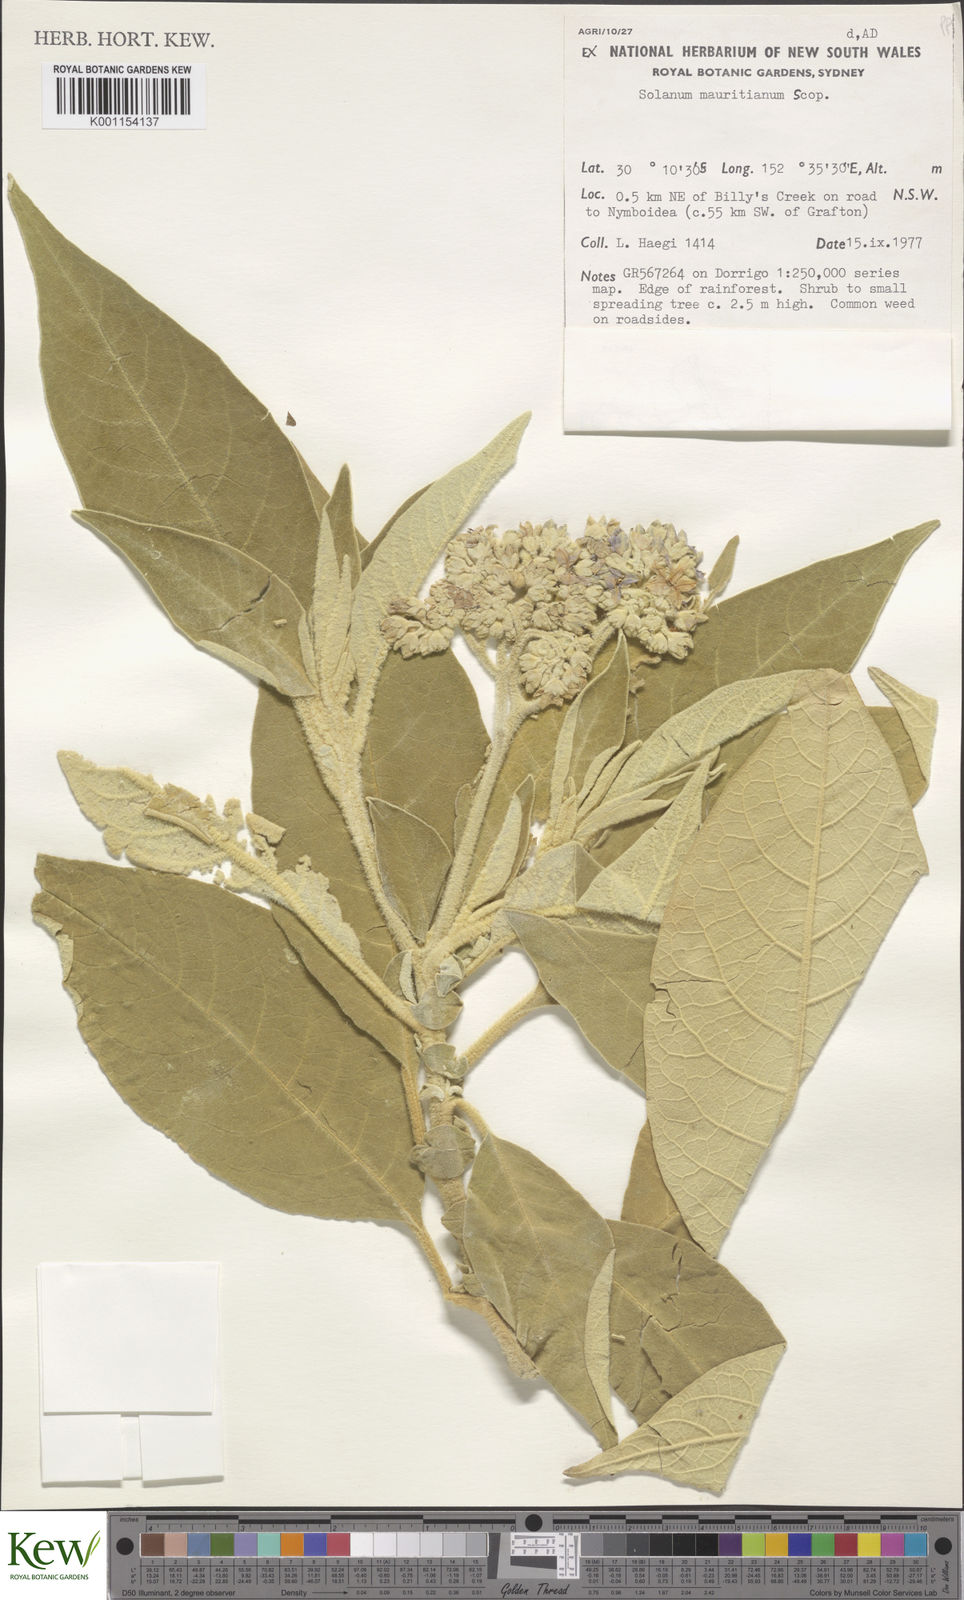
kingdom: Plantae
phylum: Tracheophyta
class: Magnoliopsida
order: Solanales
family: Solanaceae
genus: Solanum
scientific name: Solanum mauritianum
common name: Earleaf nightshade
